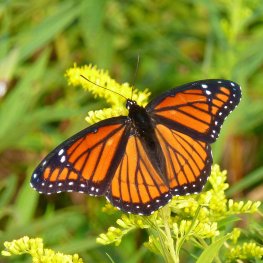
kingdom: Animalia
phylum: Arthropoda
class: Insecta
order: Lepidoptera
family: Nymphalidae
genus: Limenitis
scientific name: Limenitis archippus
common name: Viceroy
